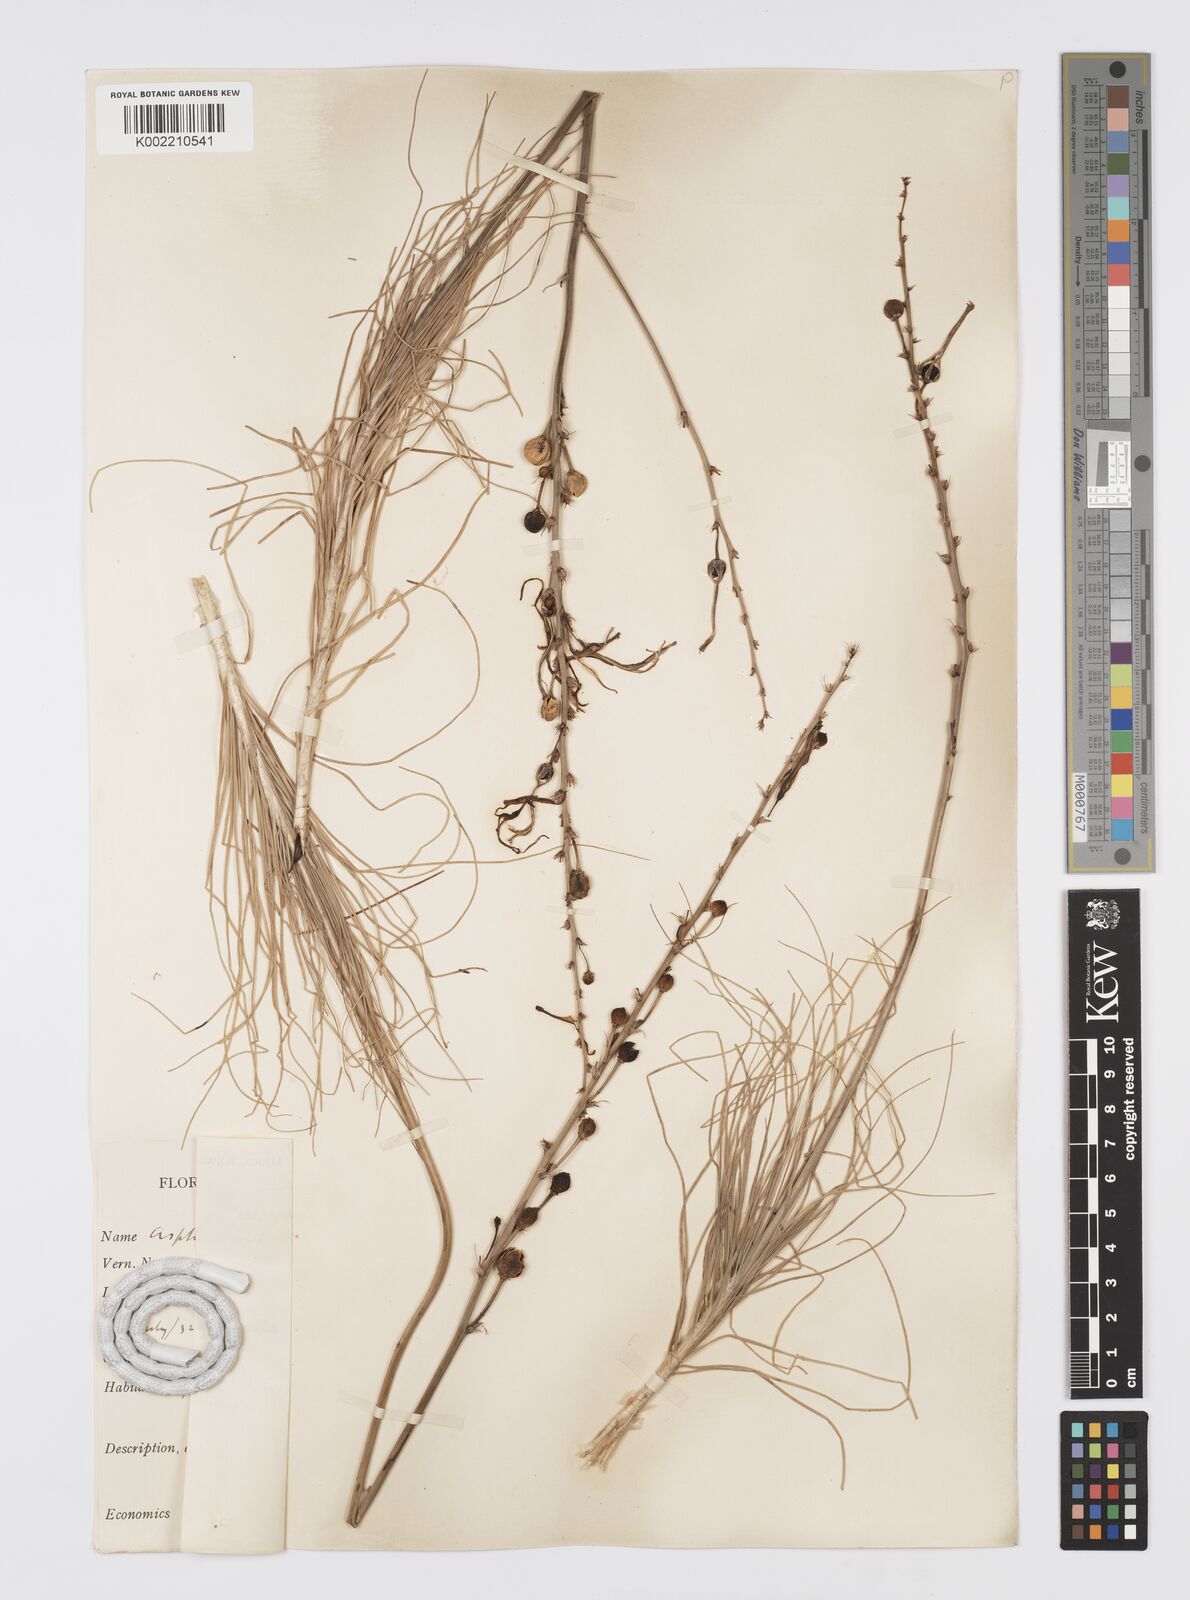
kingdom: Plantae
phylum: Tracheophyta
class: Liliopsida
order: Asparagales
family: Asphodelaceae
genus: Asphodeline
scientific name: Asphodeline liburnica
